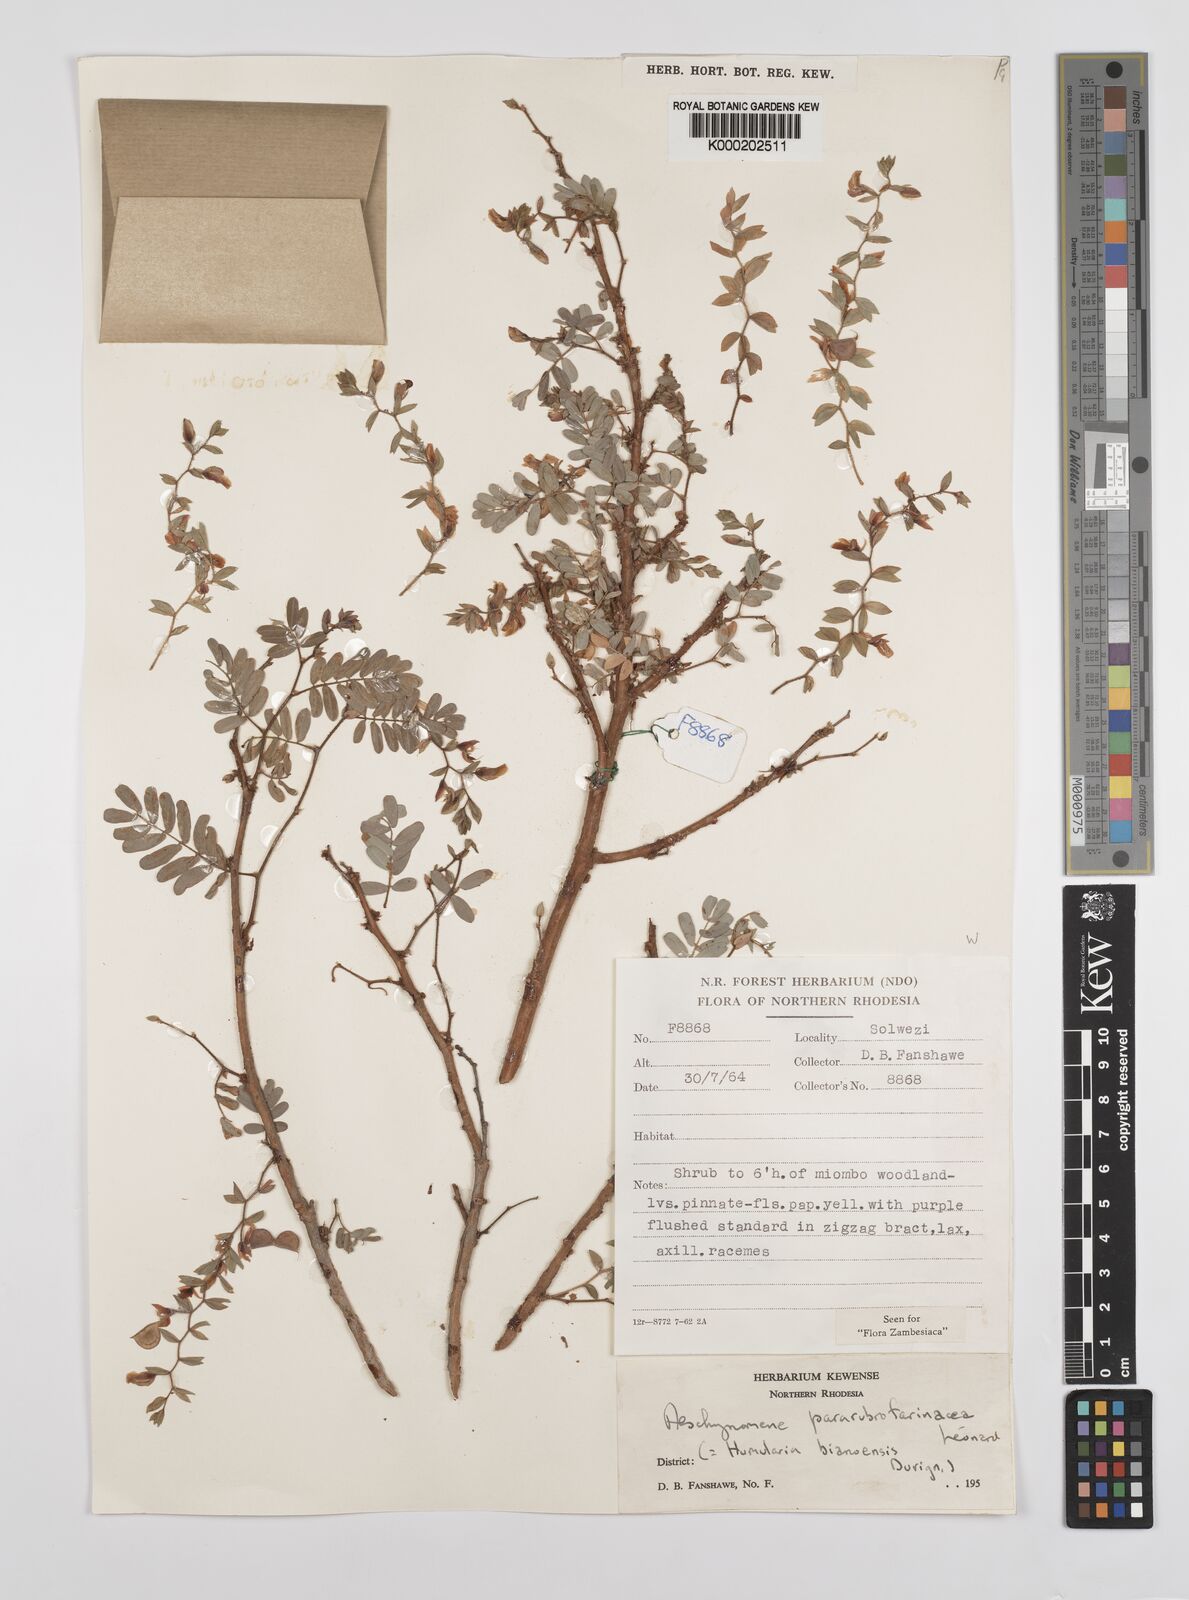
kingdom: Plantae
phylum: Tracheophyta
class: Magnoliopsida
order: Fabales
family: Fabaceae
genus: Aeschynomene
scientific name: Aeschynomene pararubrofarinacea
